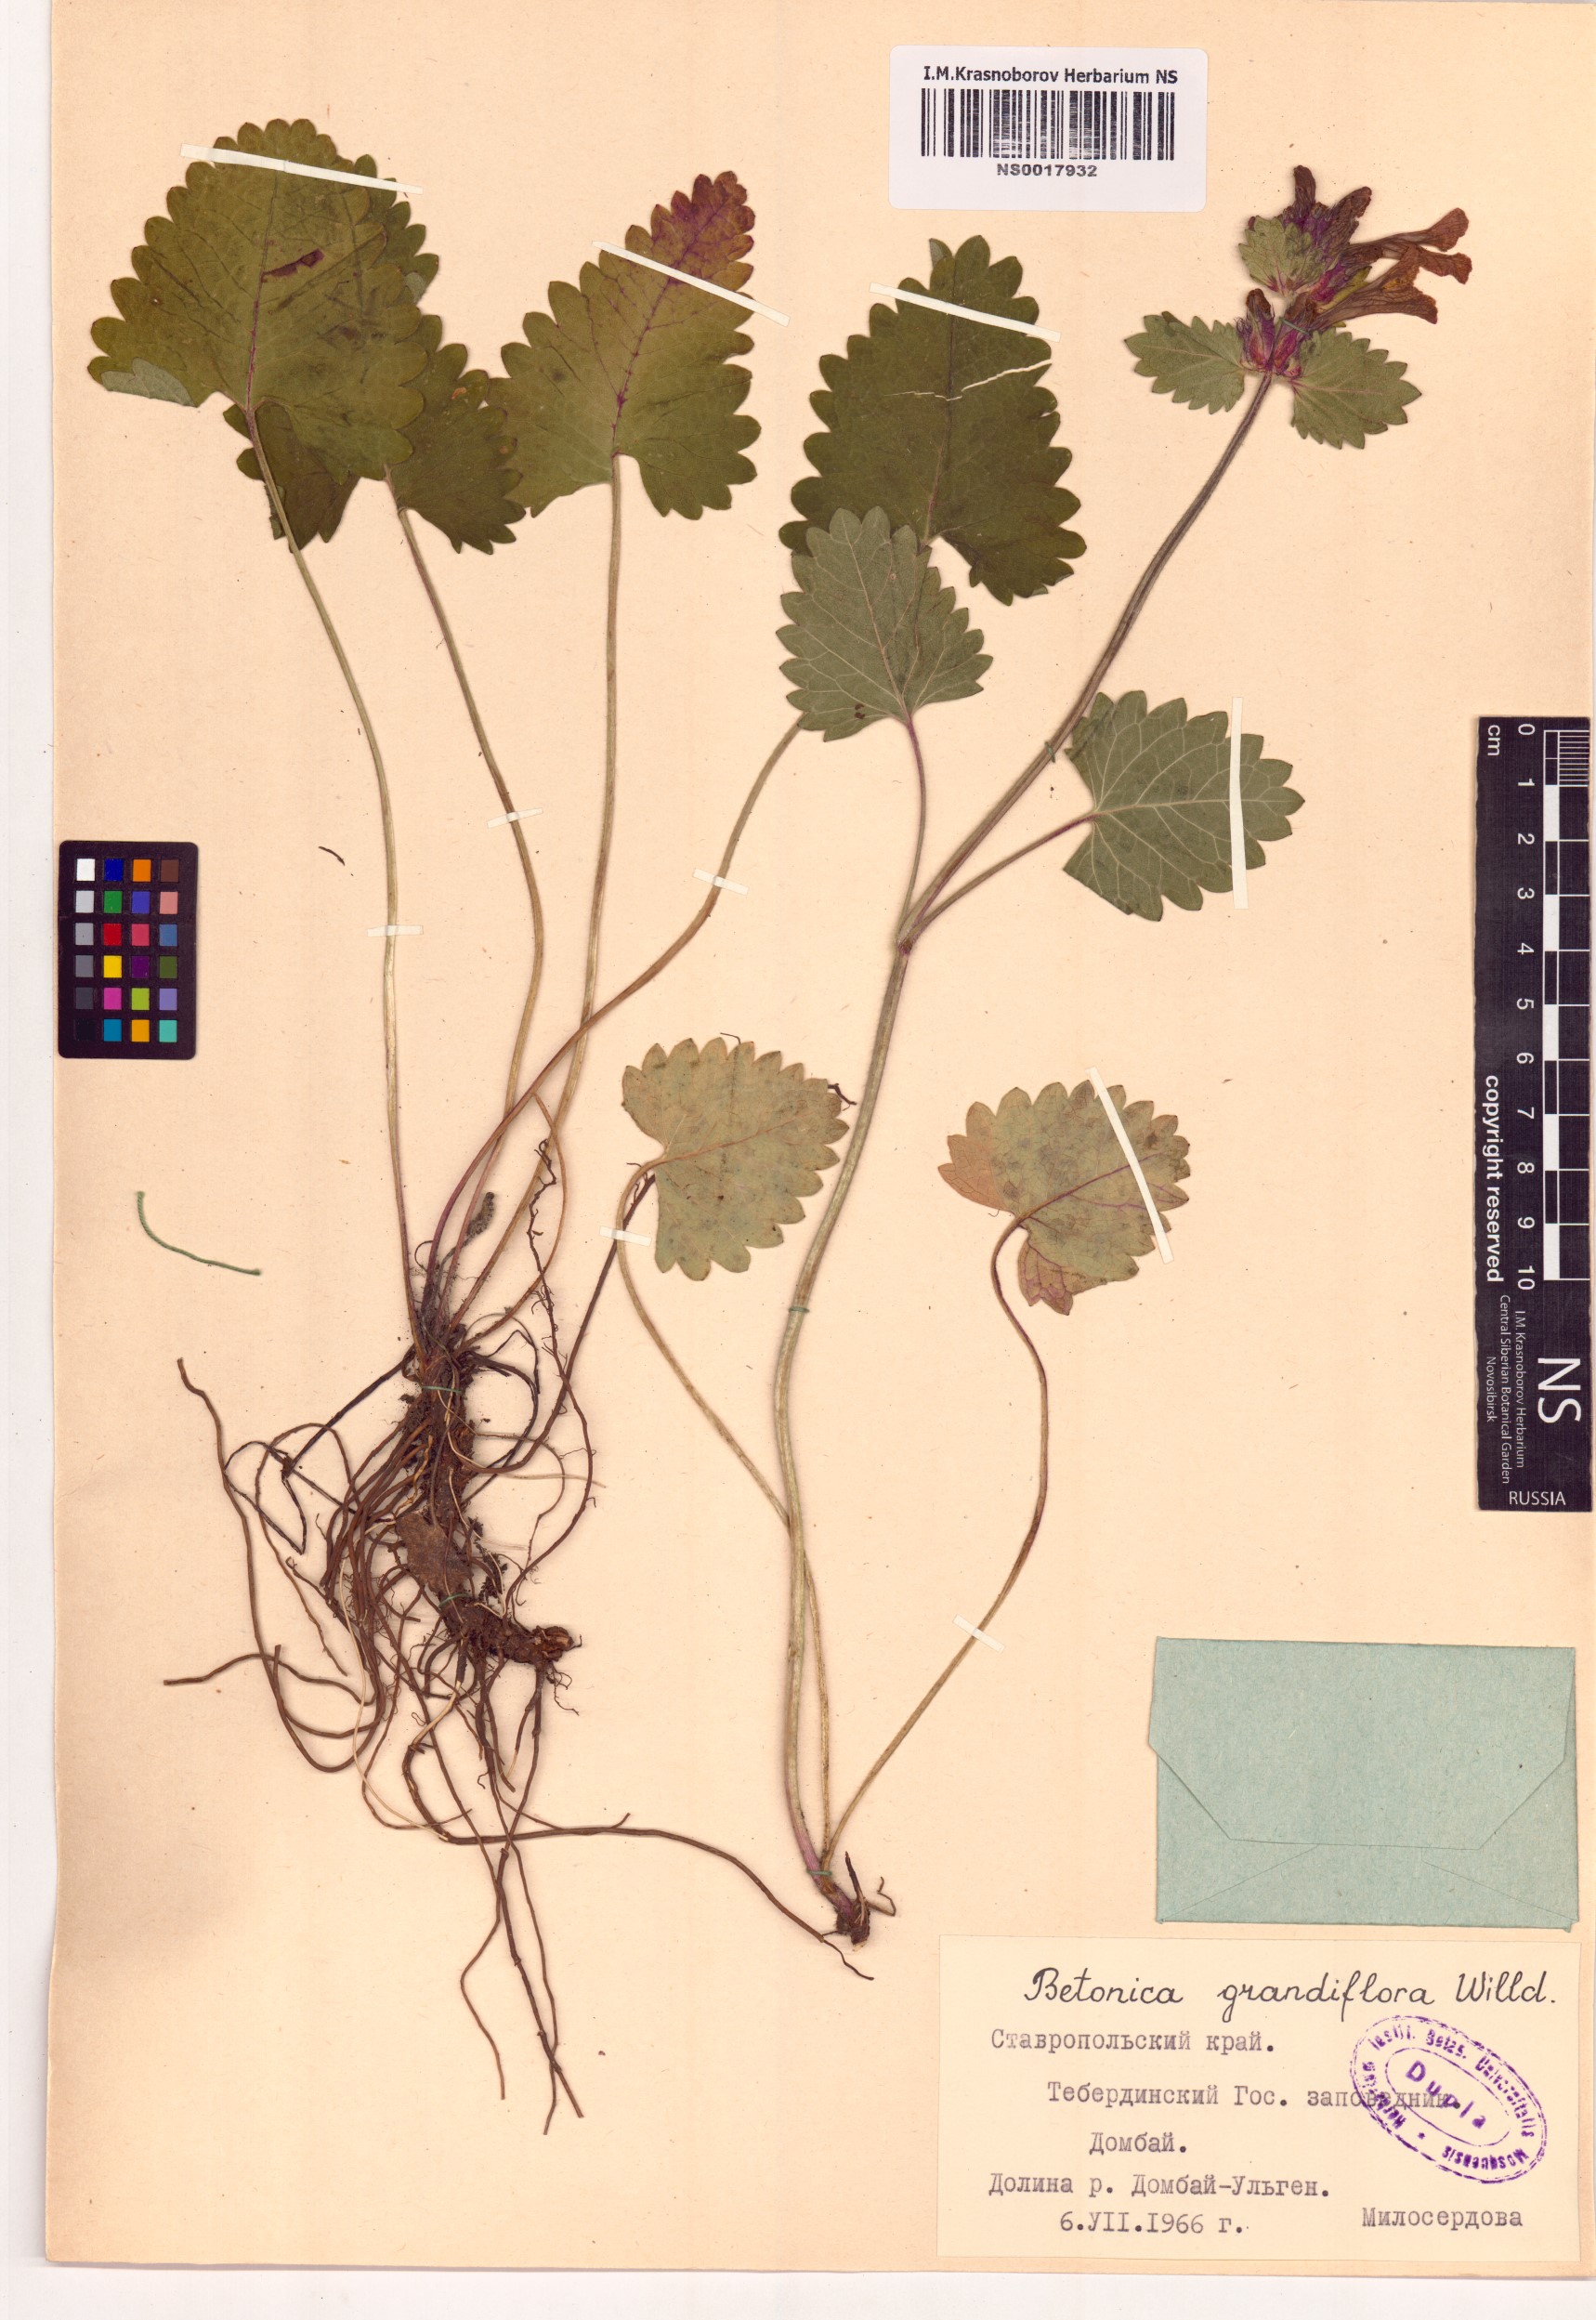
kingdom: Plantae
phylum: Tracheophyta
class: Magnoliopsida
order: Lamiales
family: Lamiaceae
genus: Betonica
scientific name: Betonica orientalis
